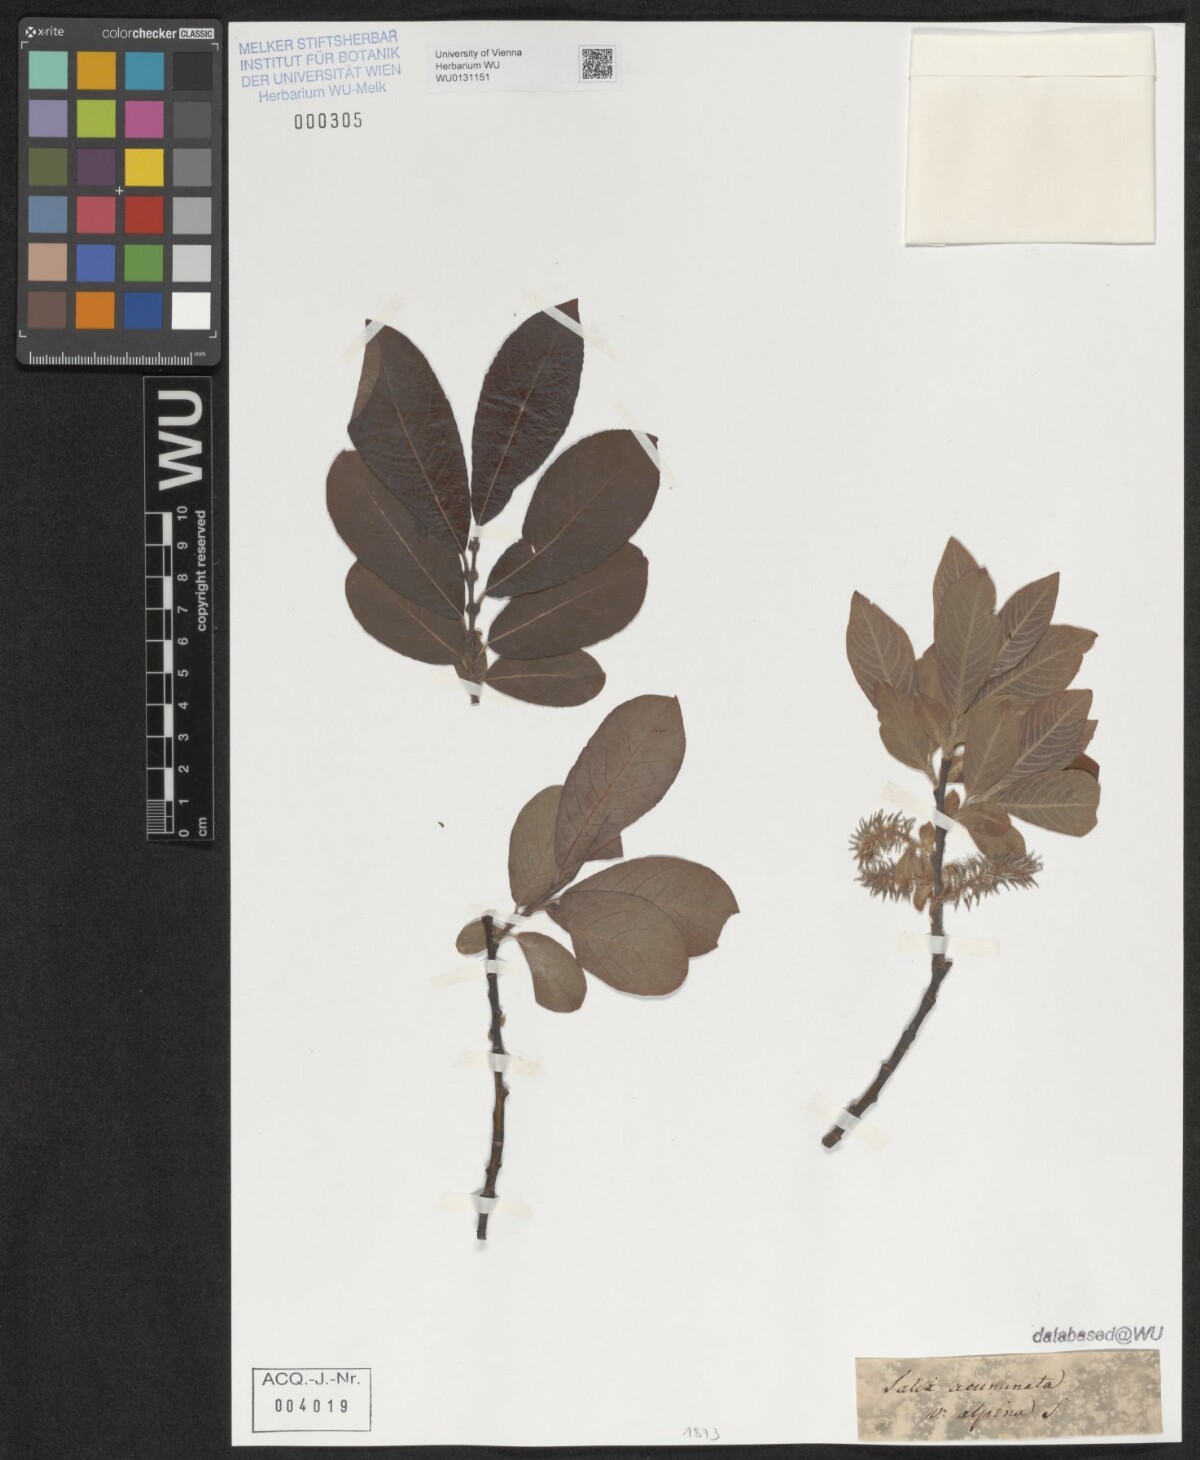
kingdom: Plantae
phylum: Tracheophyta
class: Magnoliopsida
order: Malpighiales
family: Salicaceae
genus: Salix
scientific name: Salix cinerea
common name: Common sallow
